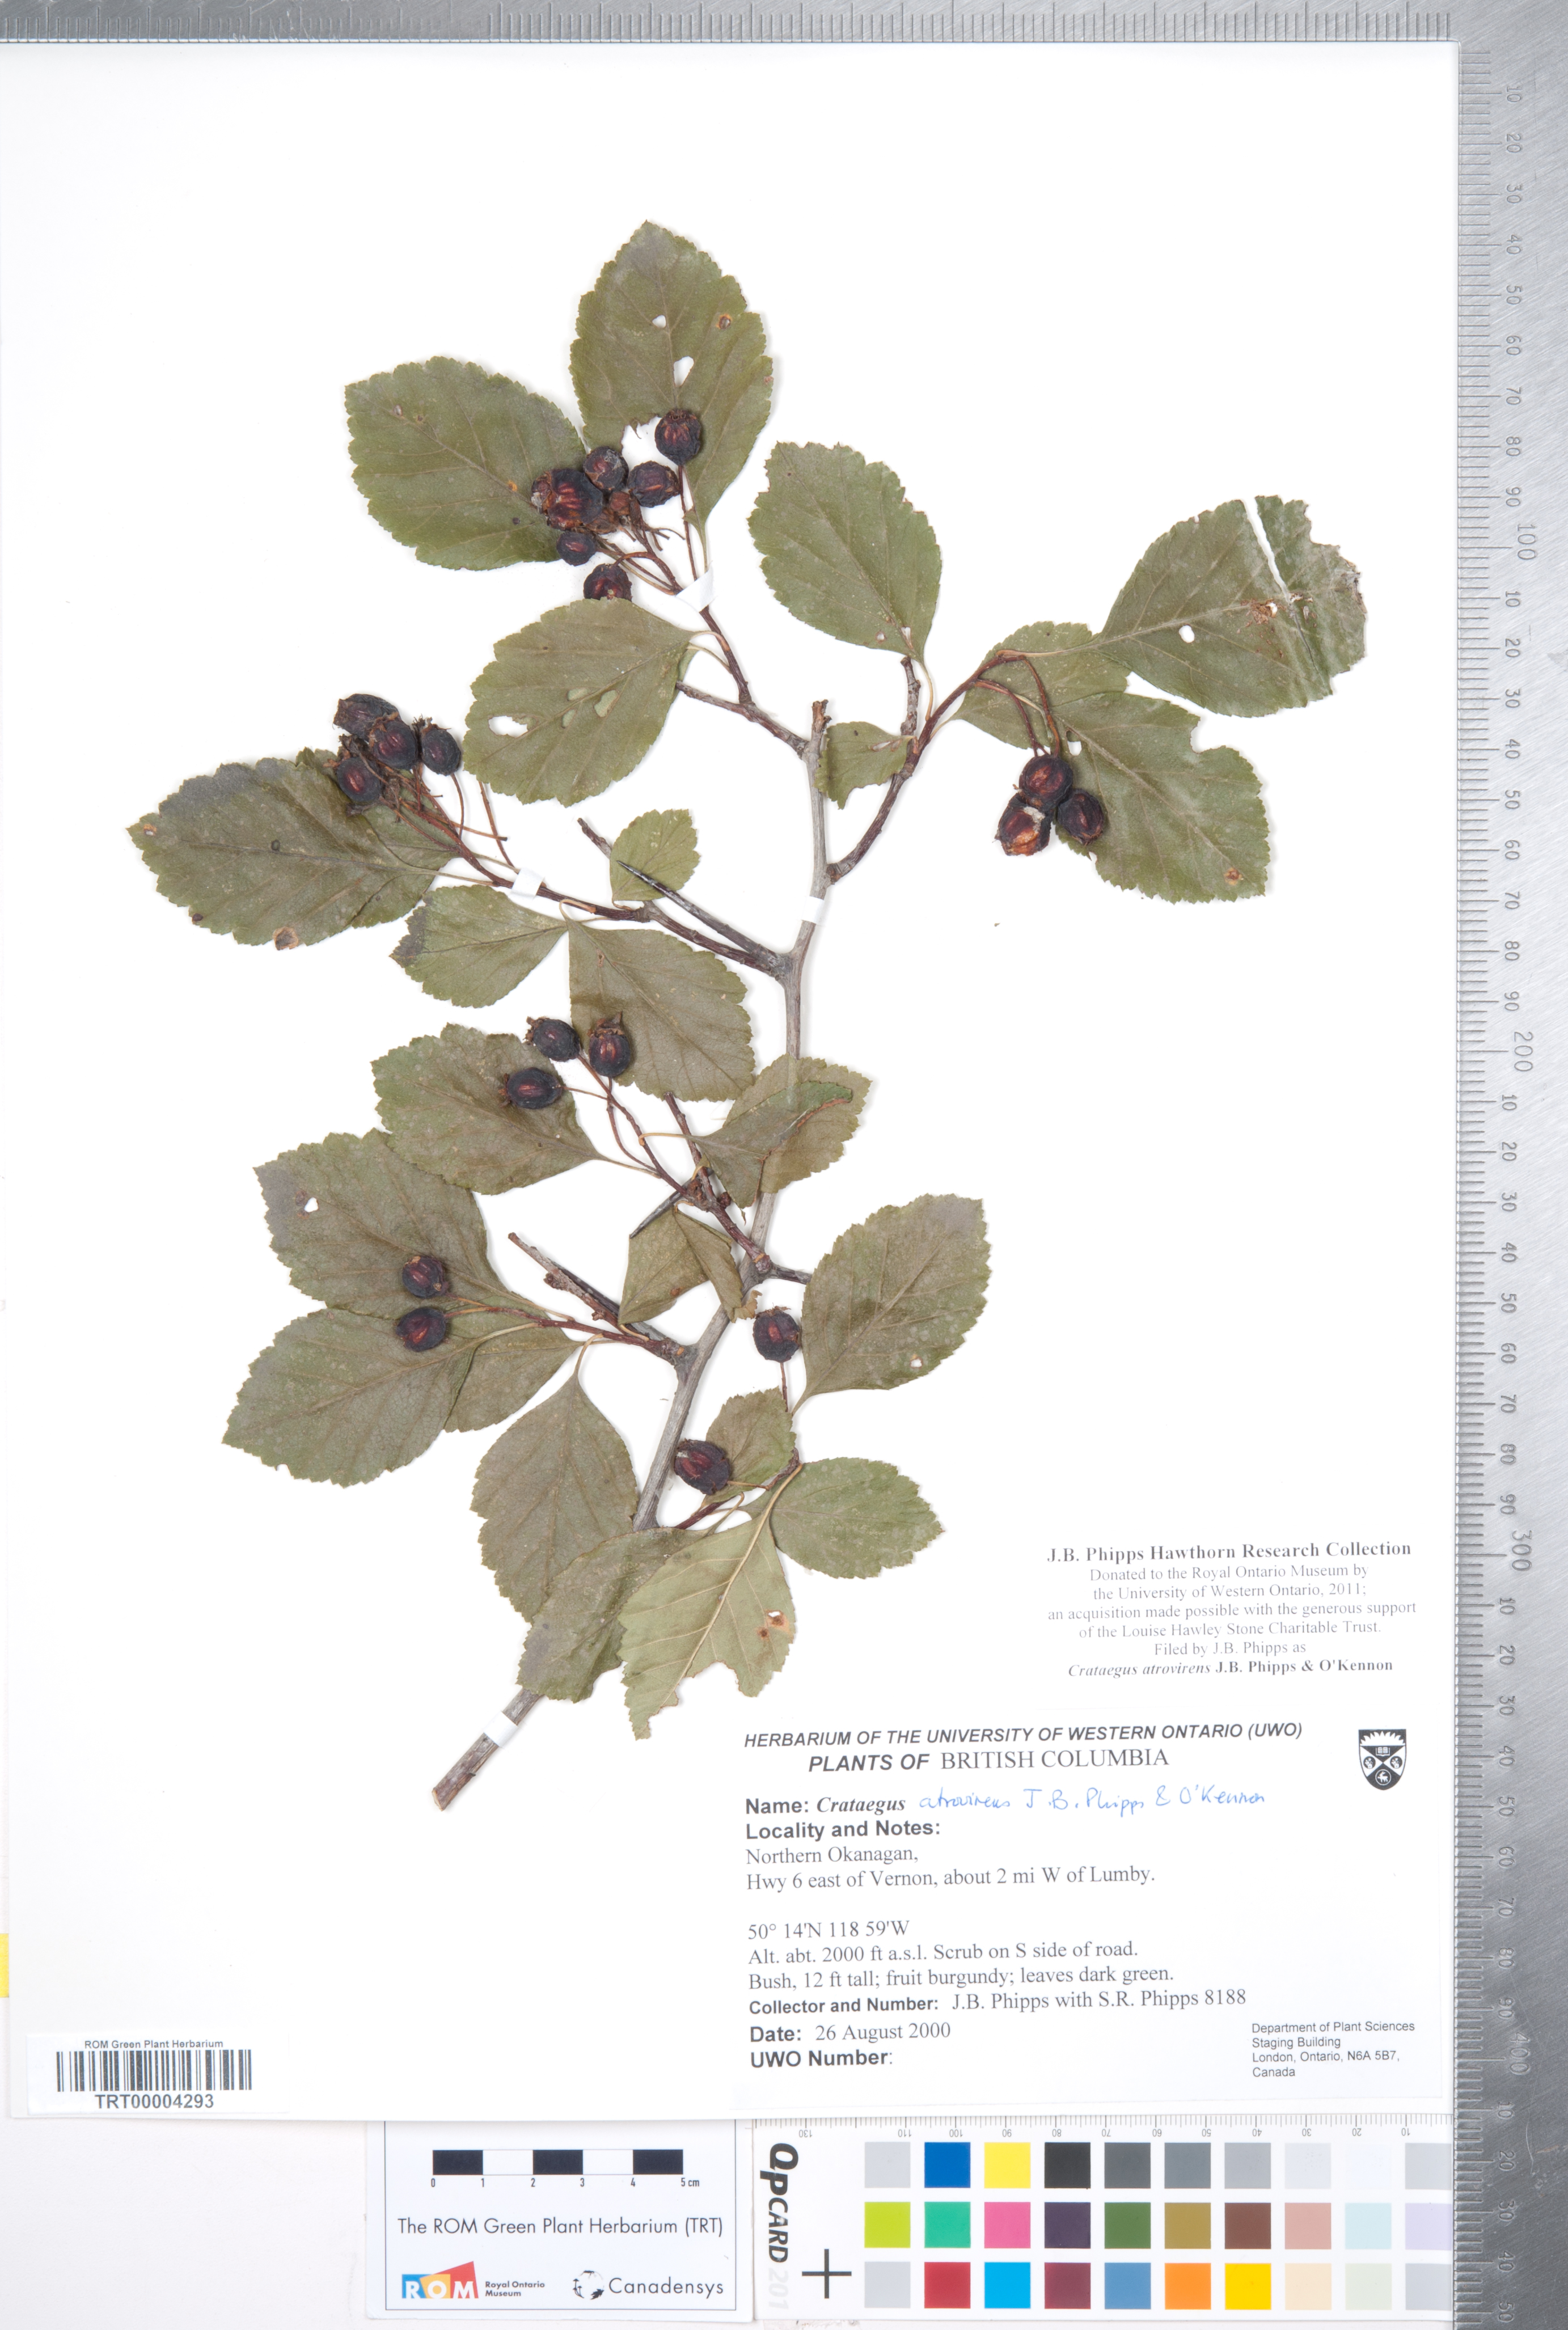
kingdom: Plantae
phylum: Tracheophyta
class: Magnoliopsida
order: Rosales
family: Rosaceae
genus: Crataegus
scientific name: Crataegus atrovirens
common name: Dark green hawthorn
